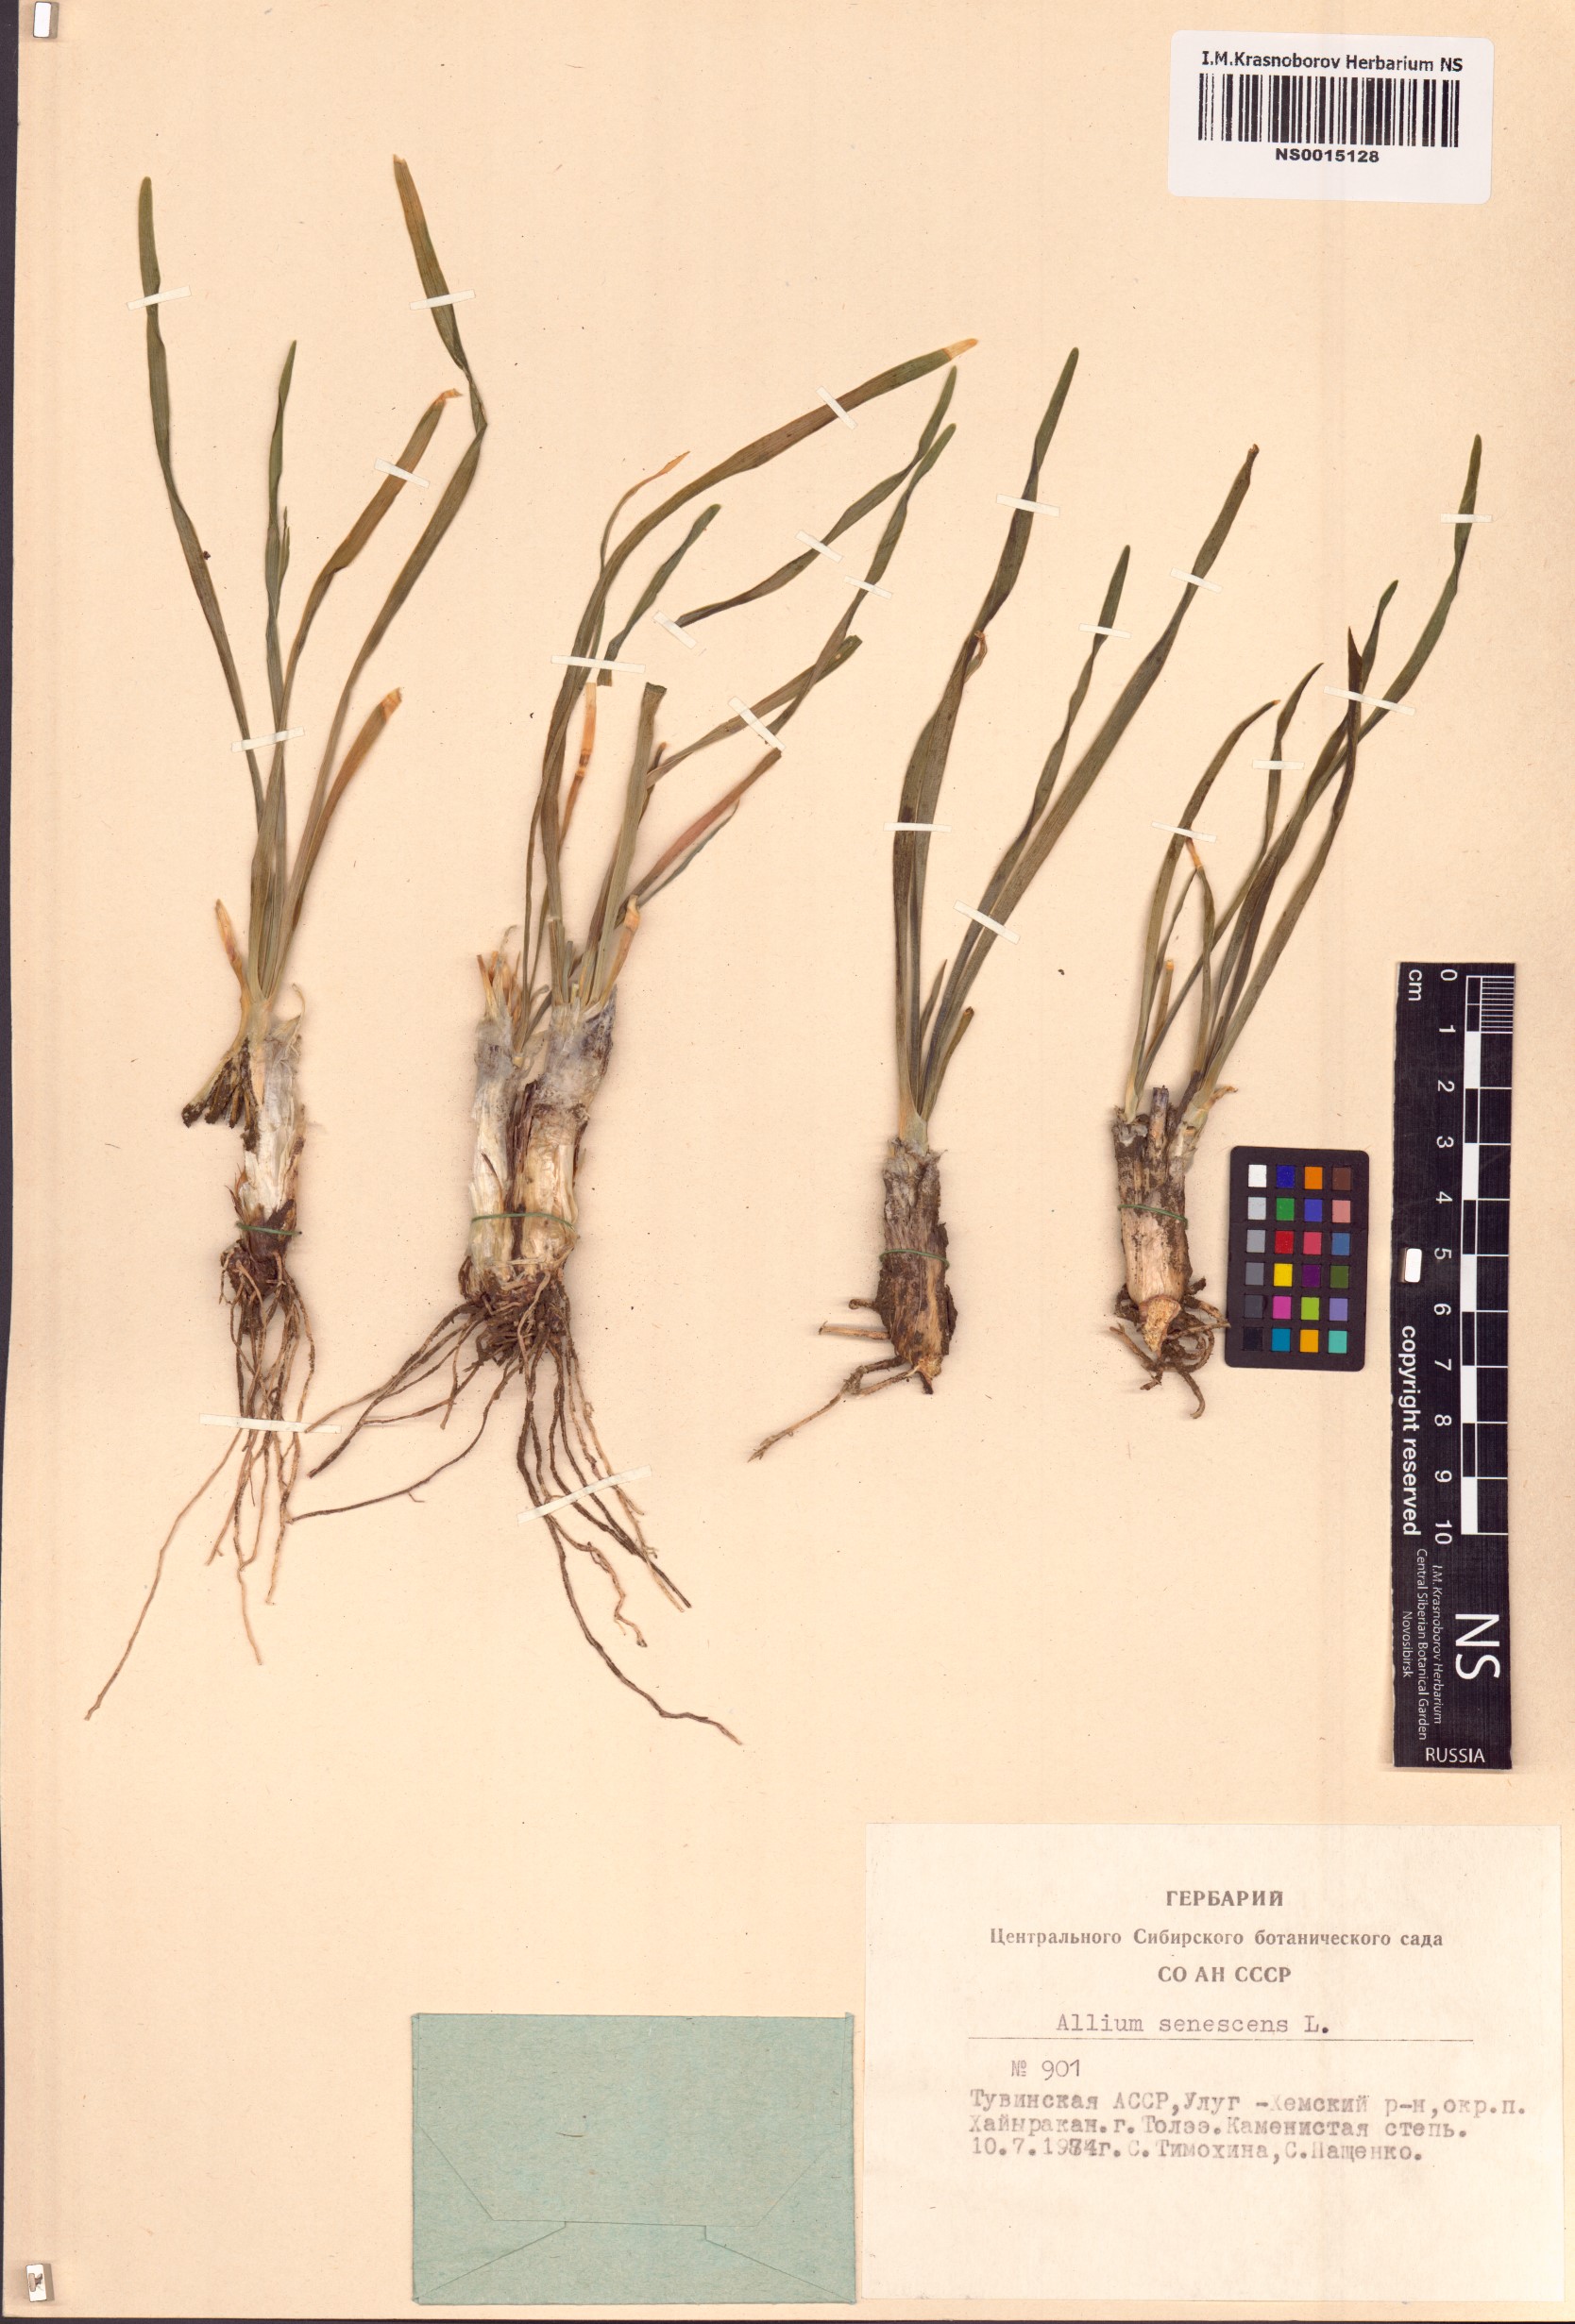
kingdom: Plantae
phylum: Tracheophyta
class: Liliopsida
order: Asparagales
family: Amaryllidaceae
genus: Allium
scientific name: Allium senescens
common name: German garlic
